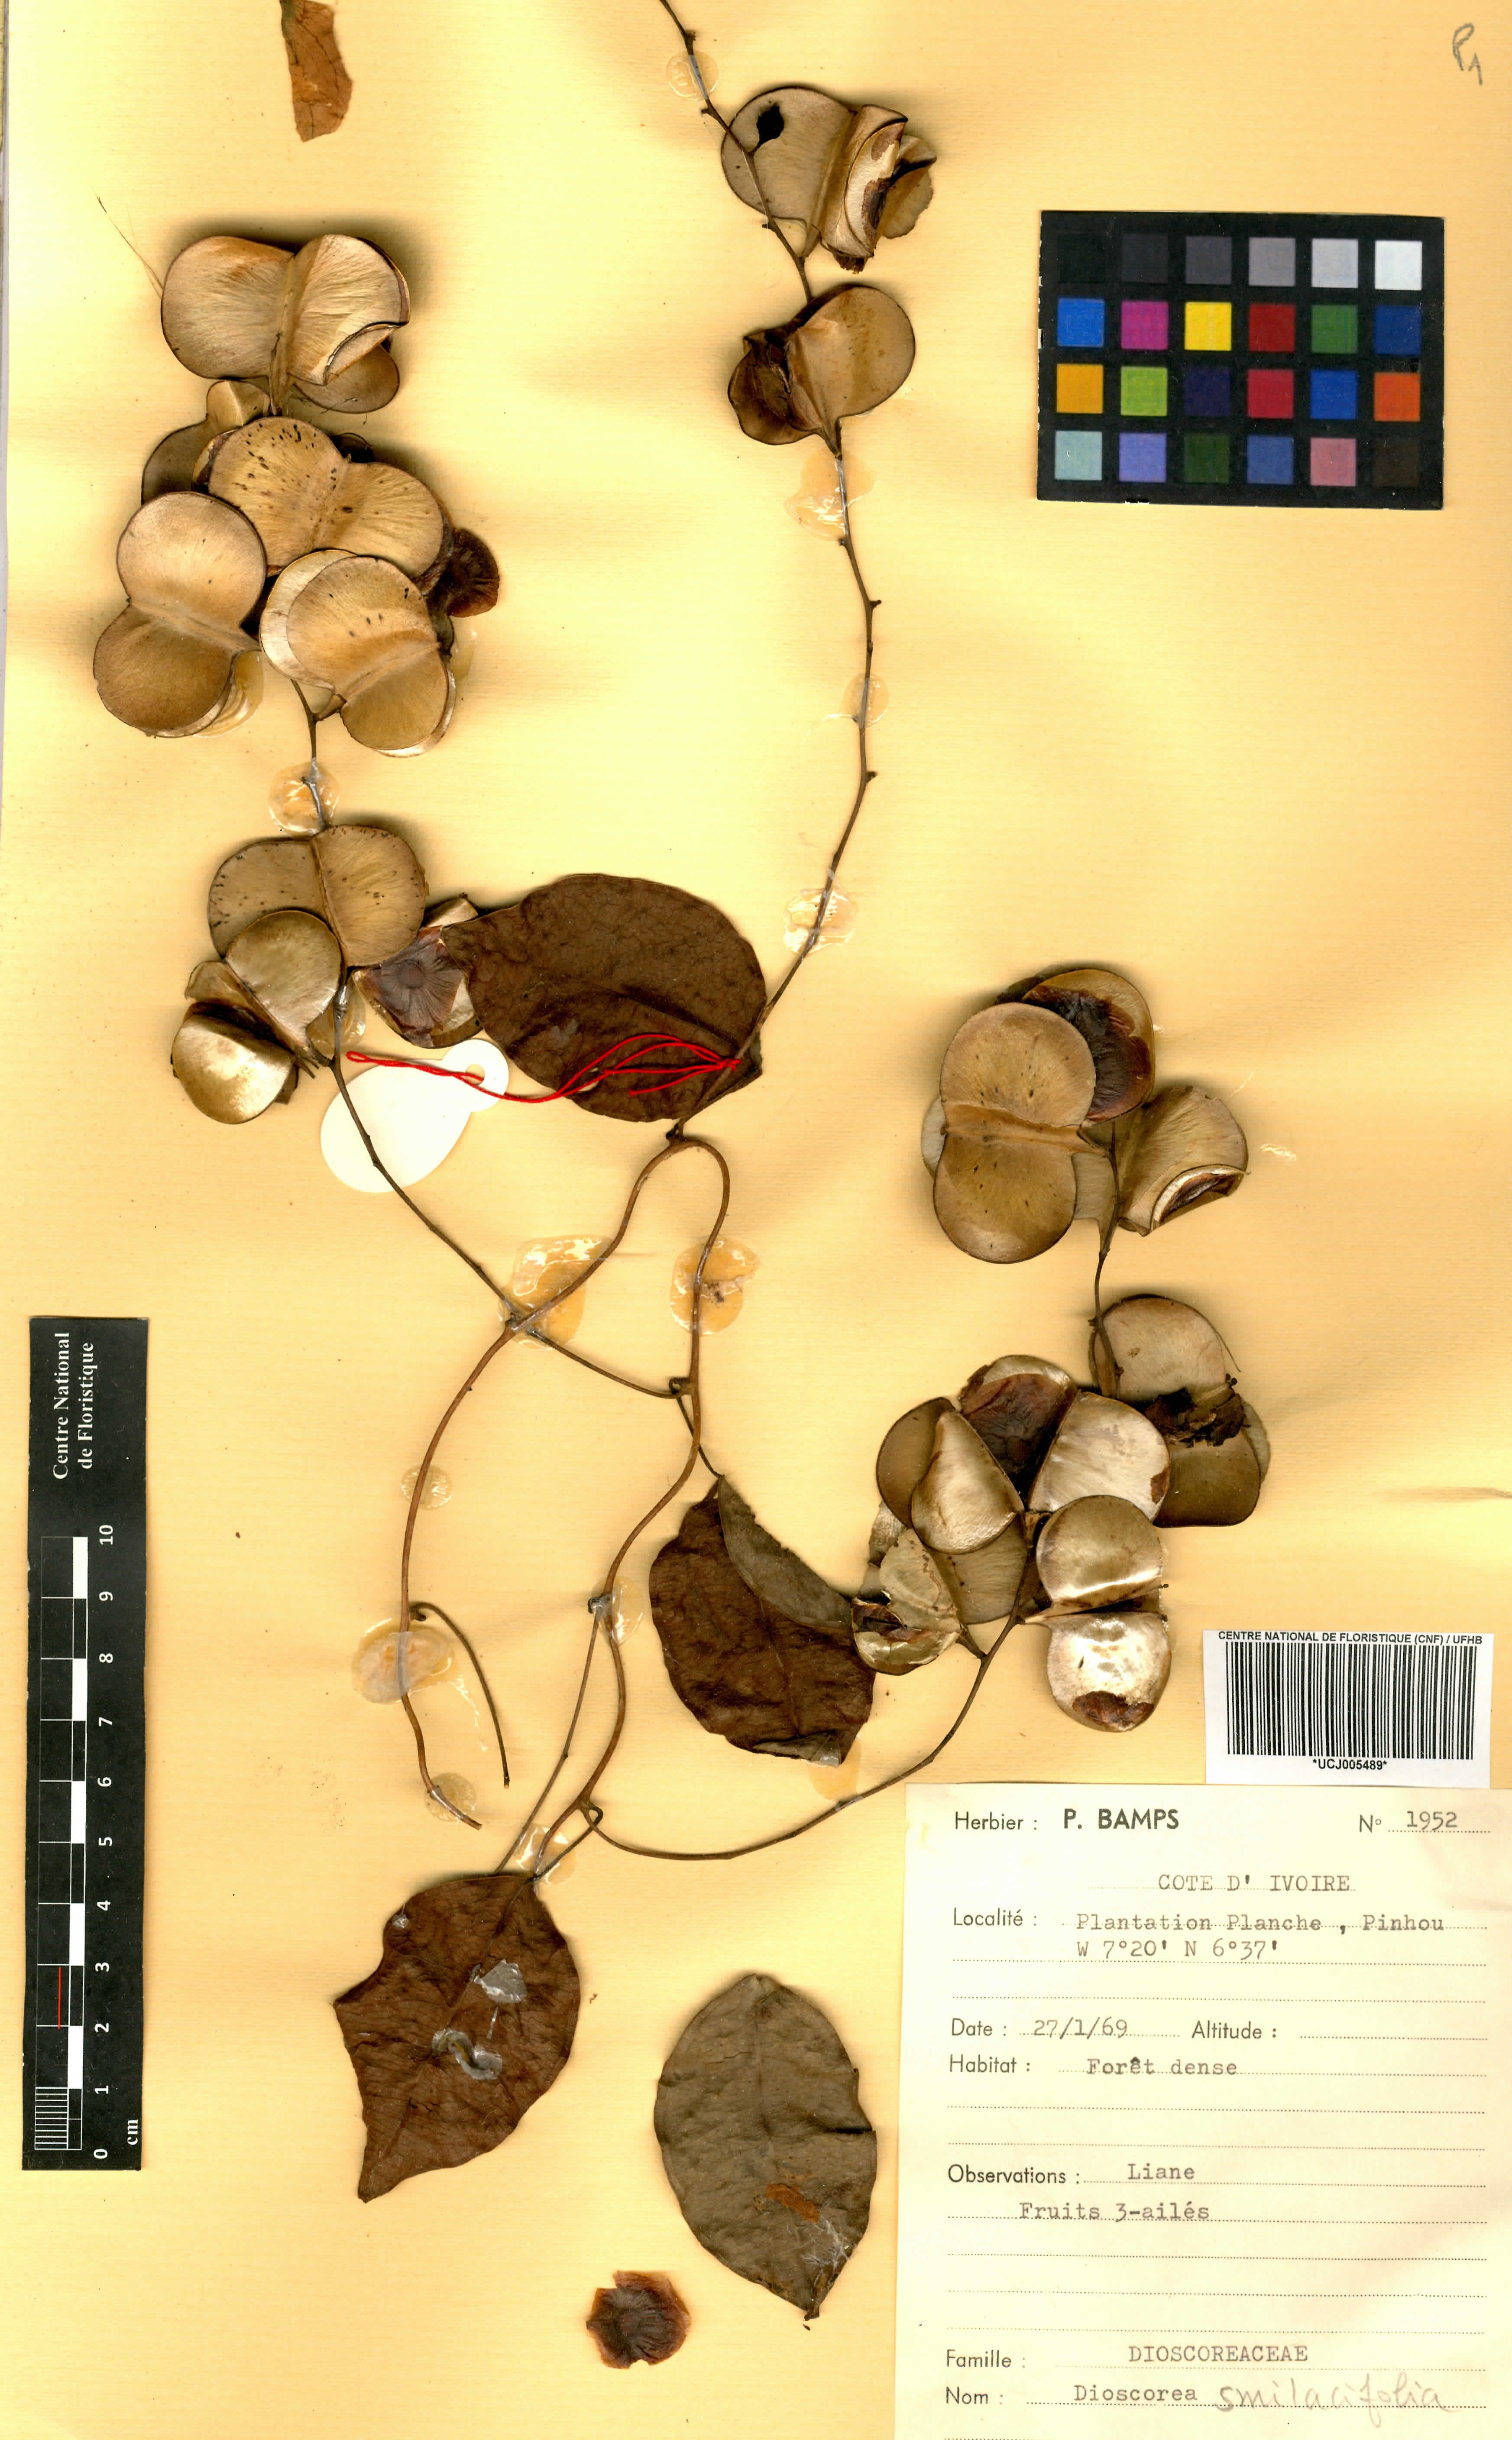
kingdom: Plantae
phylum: Tracheophyta
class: Liliopsida
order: Dioscoreales
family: Dioscoreaceae
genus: Dioscorea
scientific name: Dioscorea smilacifolia
